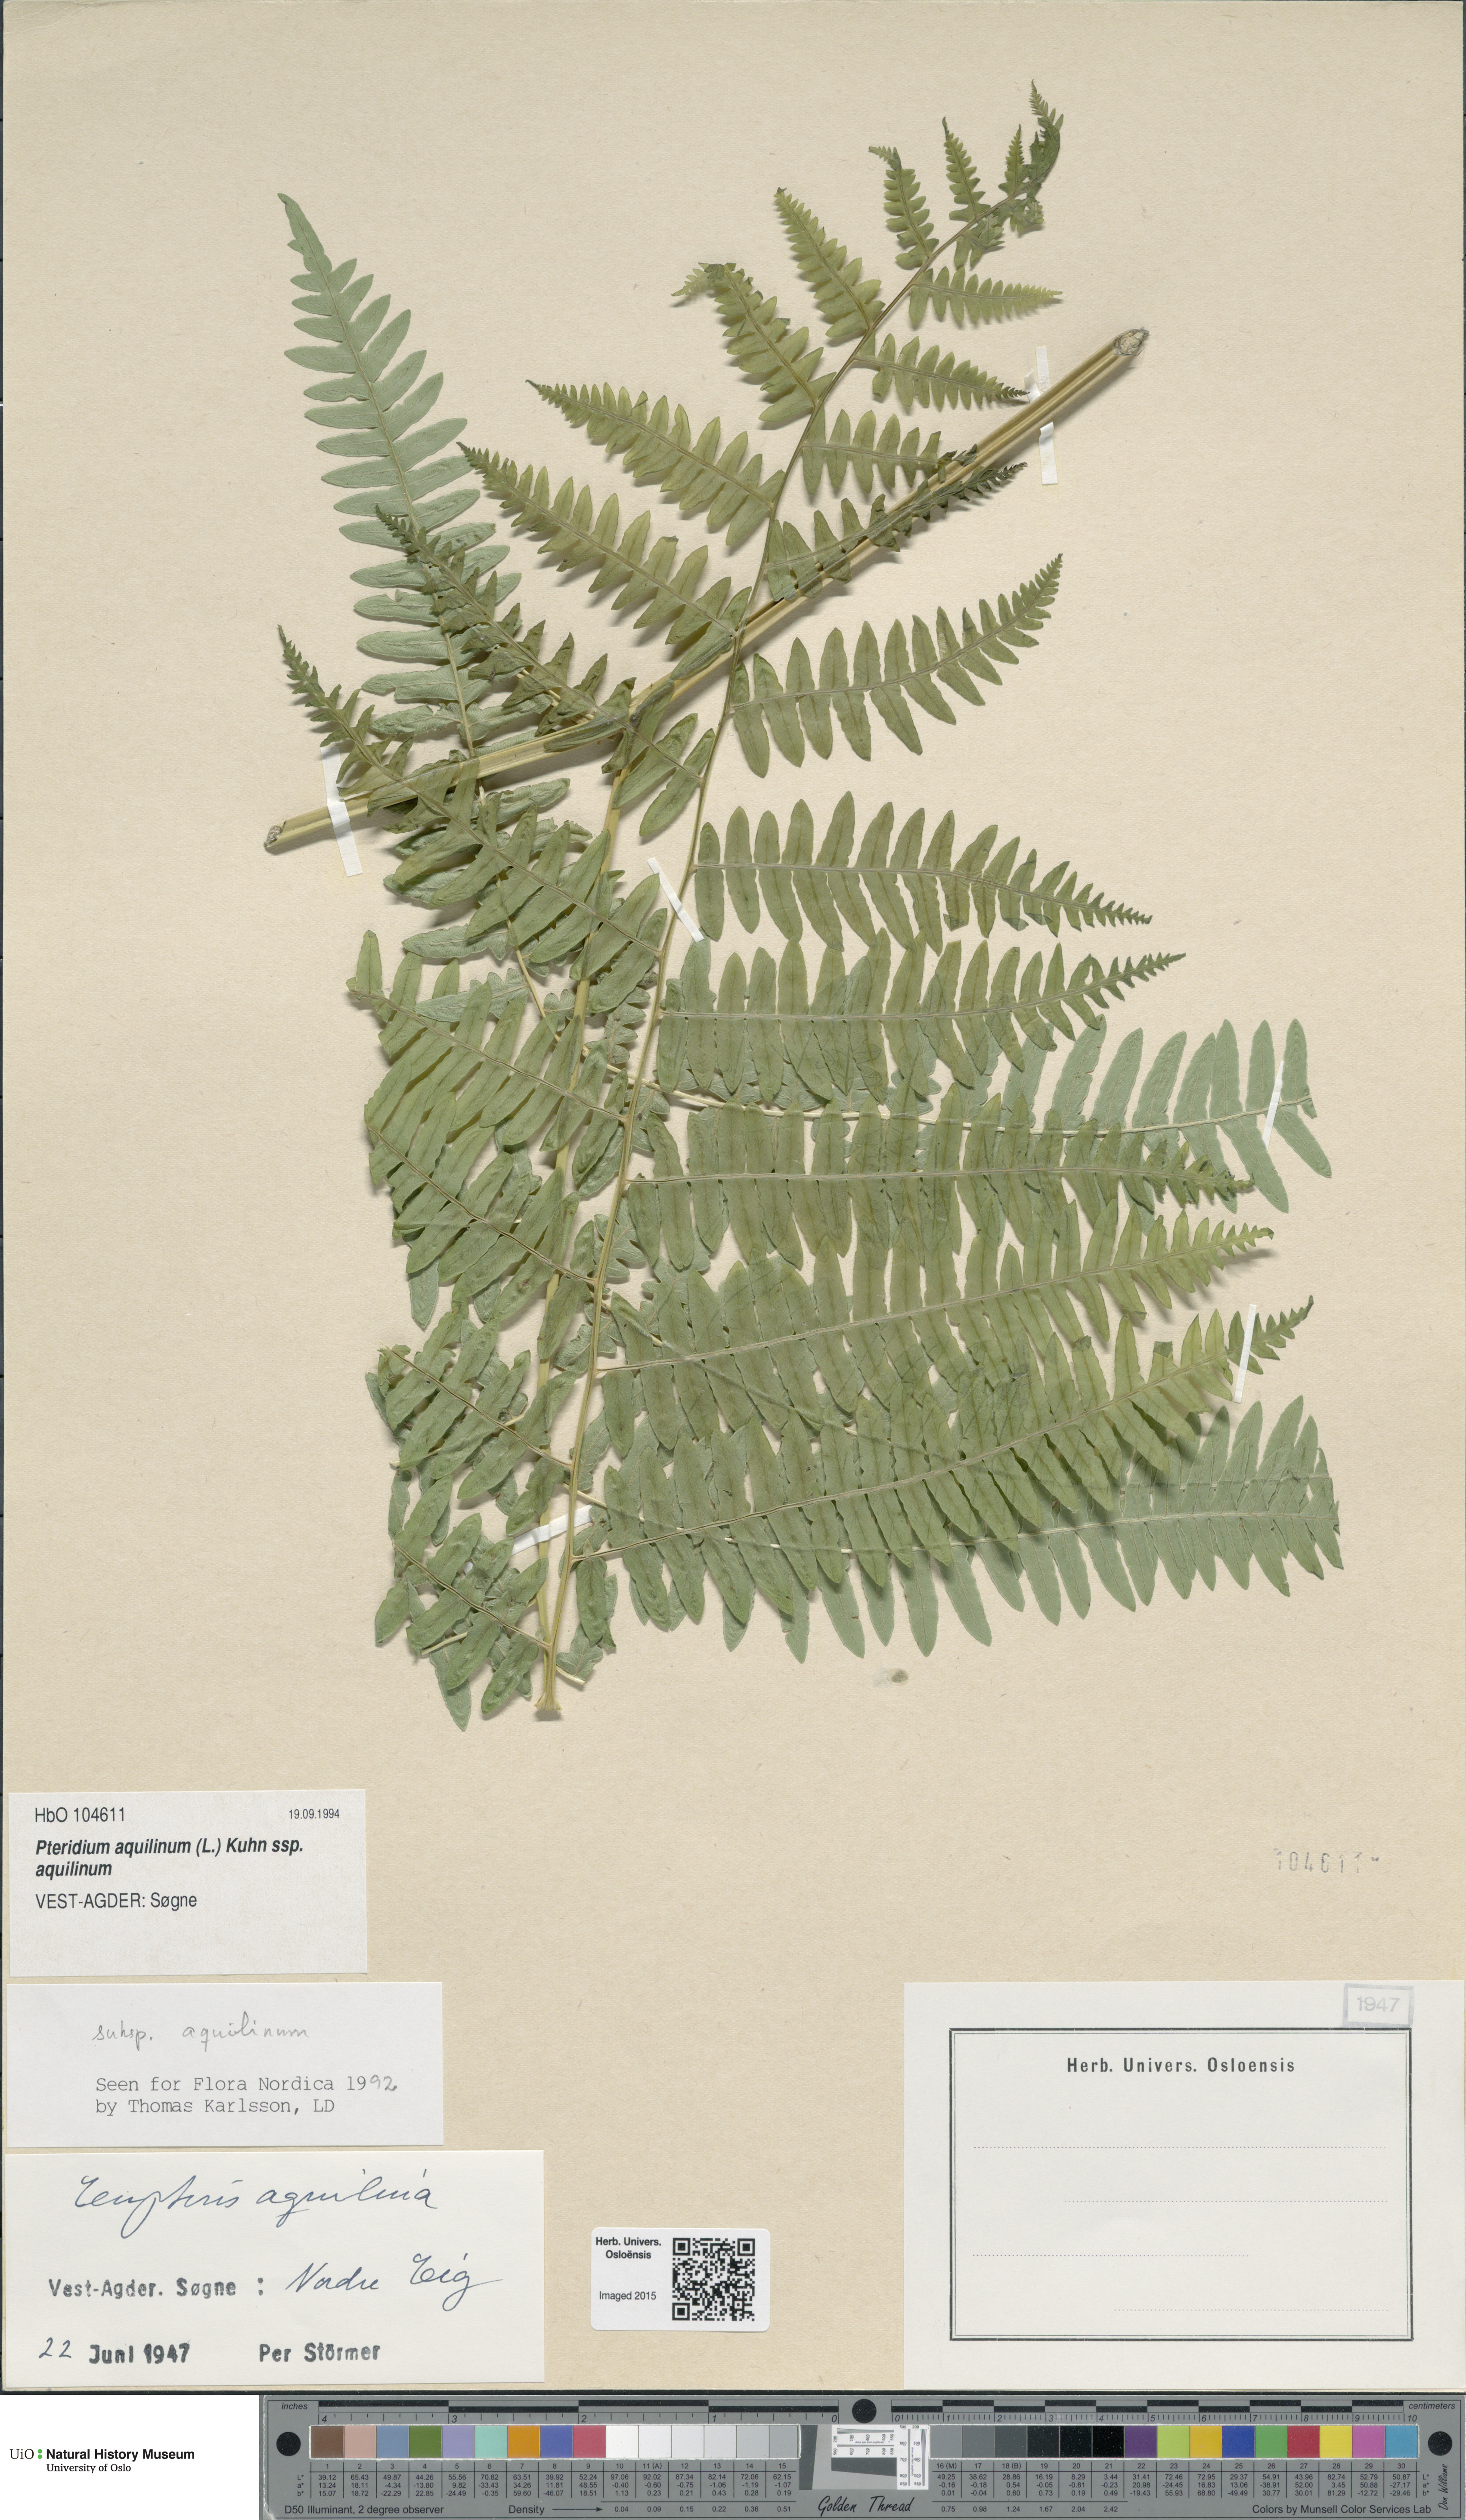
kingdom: Plantae
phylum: Tracheophyta
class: Polypodiopsida
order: Polypodiales
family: Dennstaedtiaceae
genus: Pteridium
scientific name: Pteridium aquilinum
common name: Bracken
